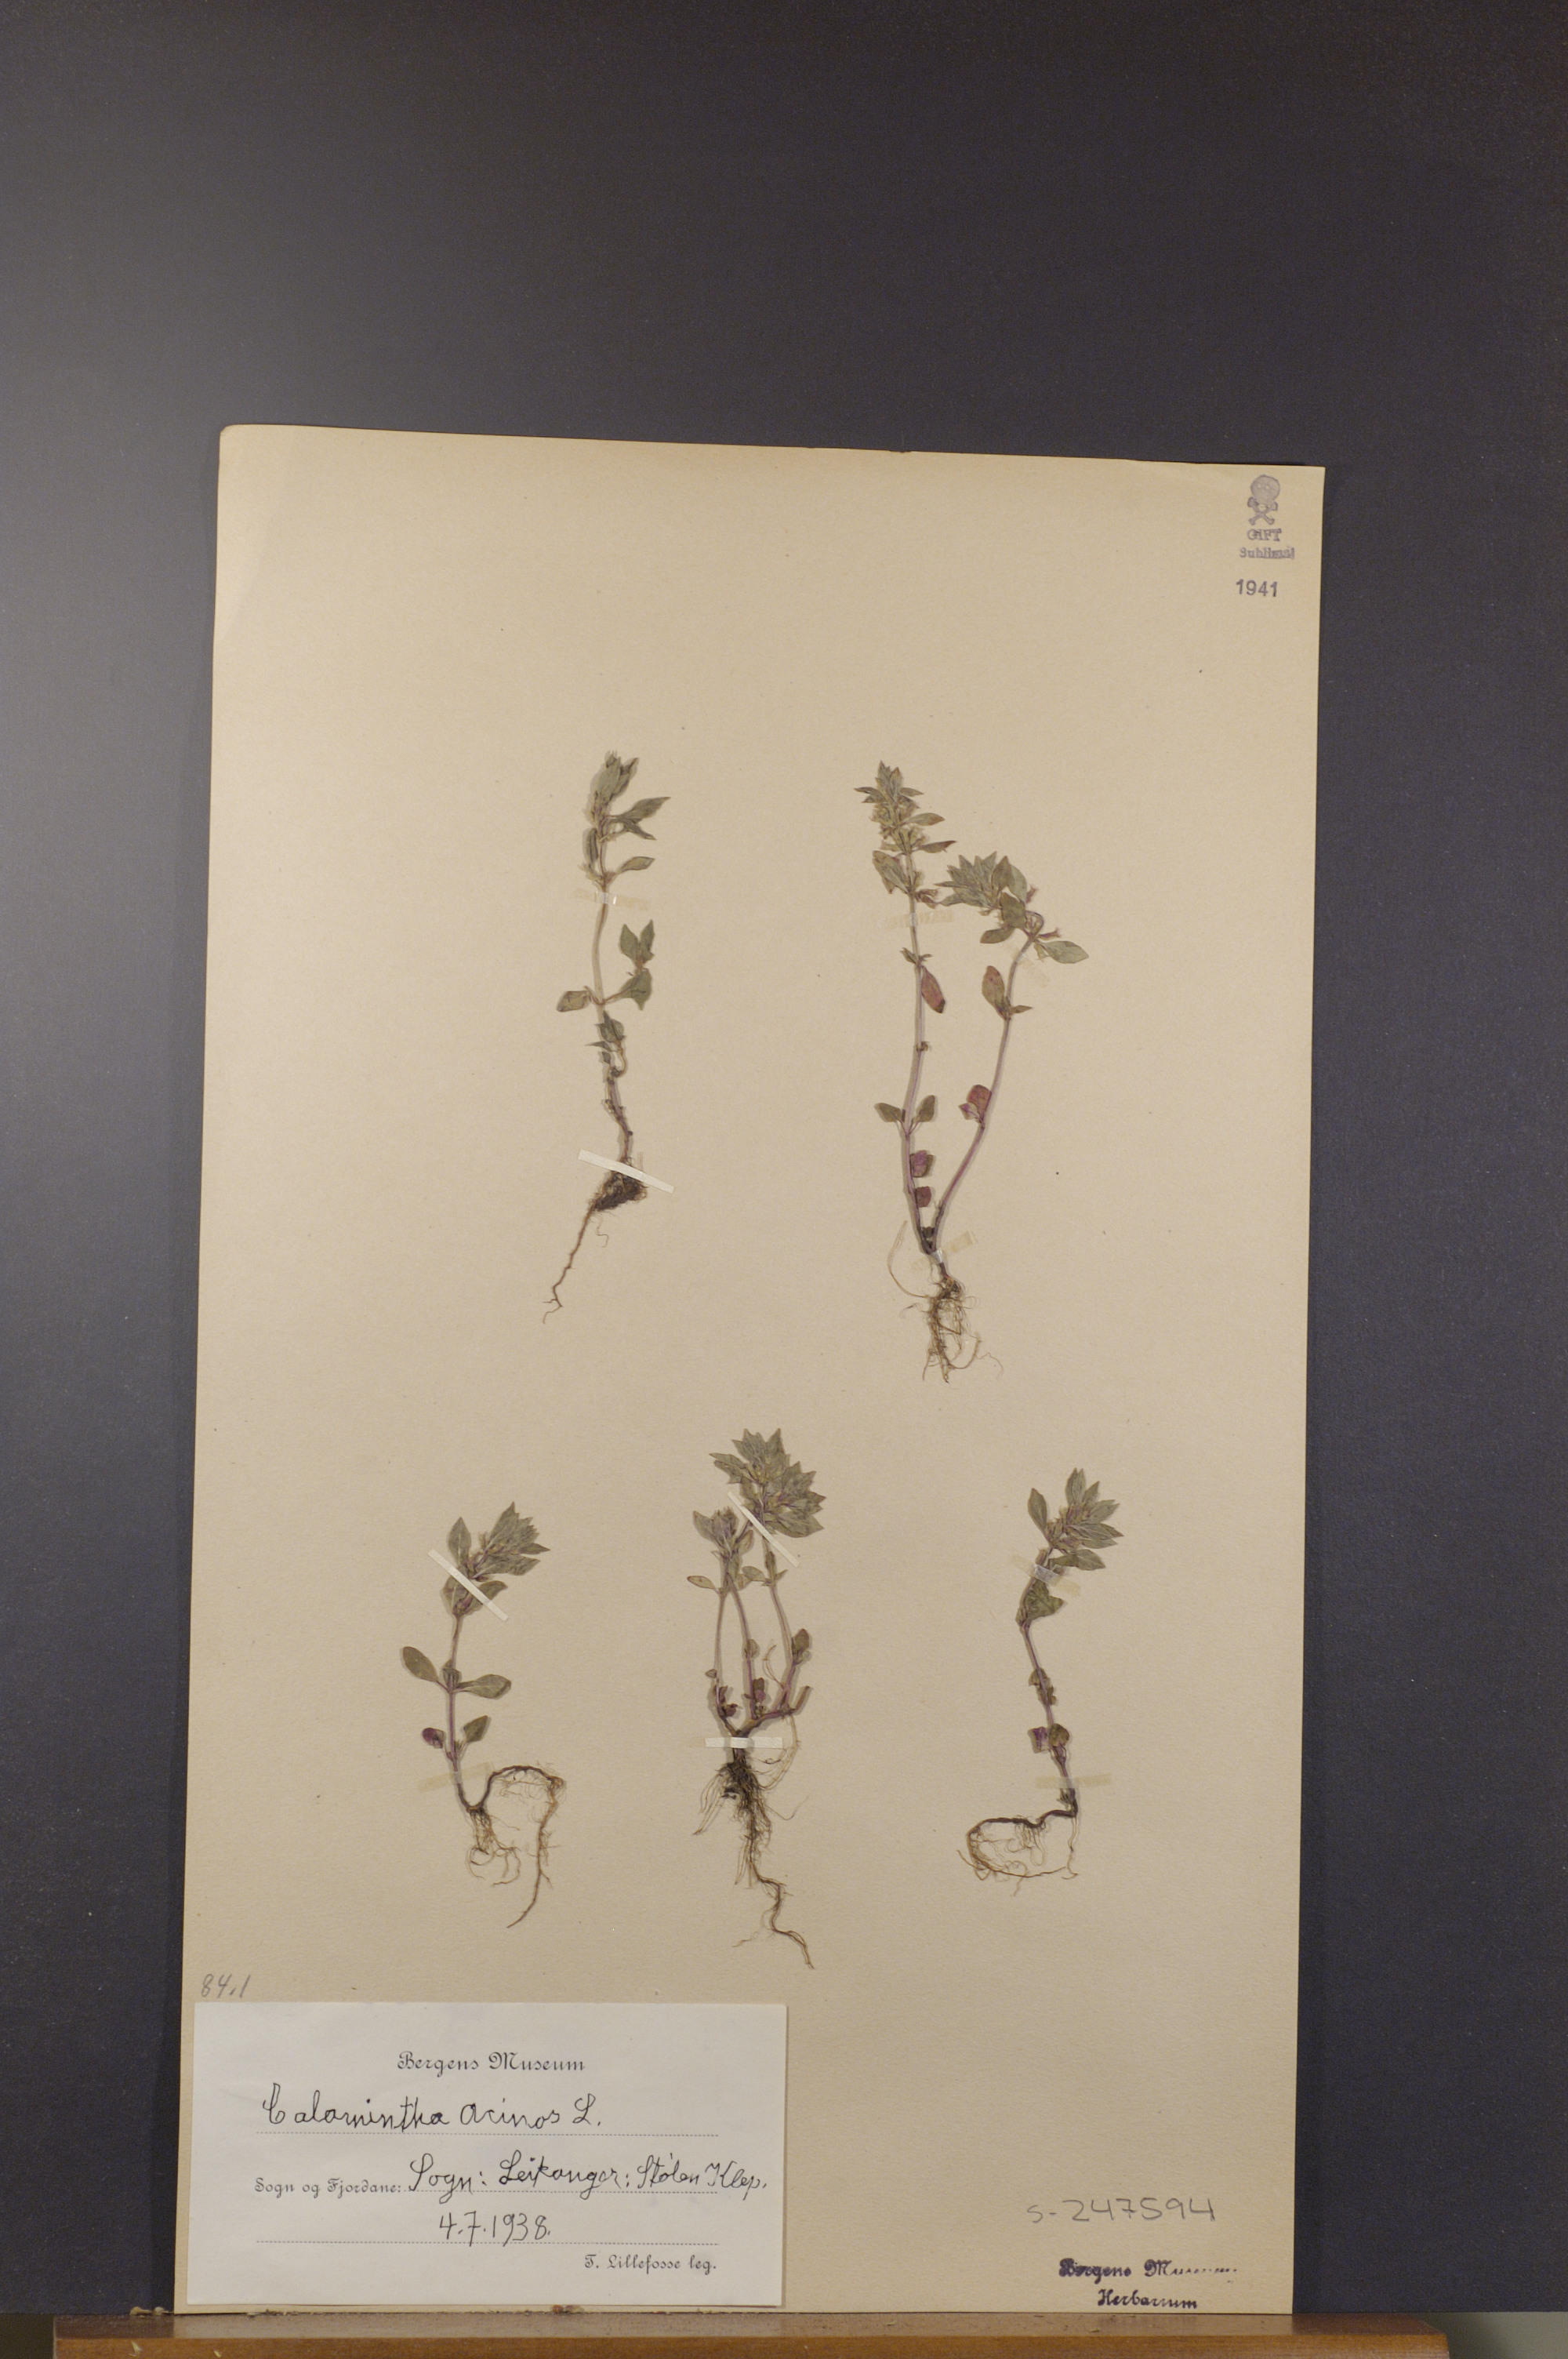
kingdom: Plantae
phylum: Tracheophyta
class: Magnoliopsida
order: Lamiales
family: Lamiaceae
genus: Clinopodium
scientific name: Clinopodium acinos
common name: Basil thyme
